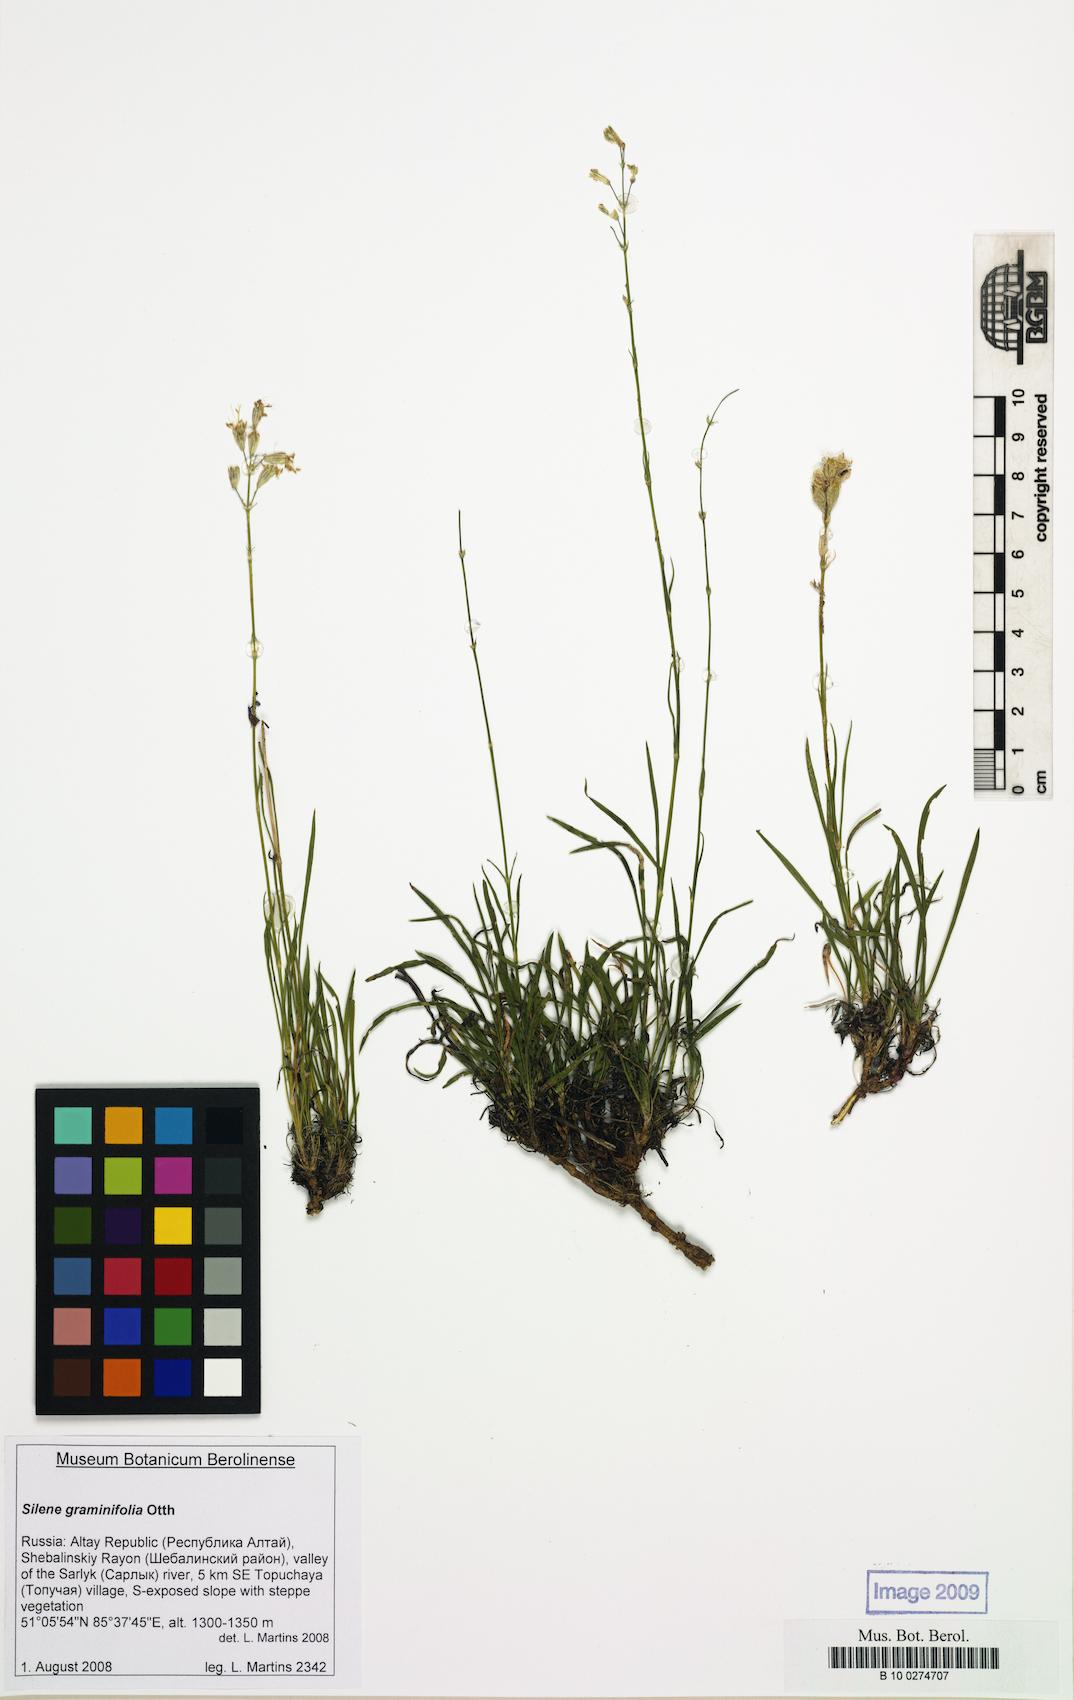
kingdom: Plantae
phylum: Tracheophyta
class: Magnoliopsida
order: Caryophyllales
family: Caryophyllaceae
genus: Silene
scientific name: Silene graminifolia
